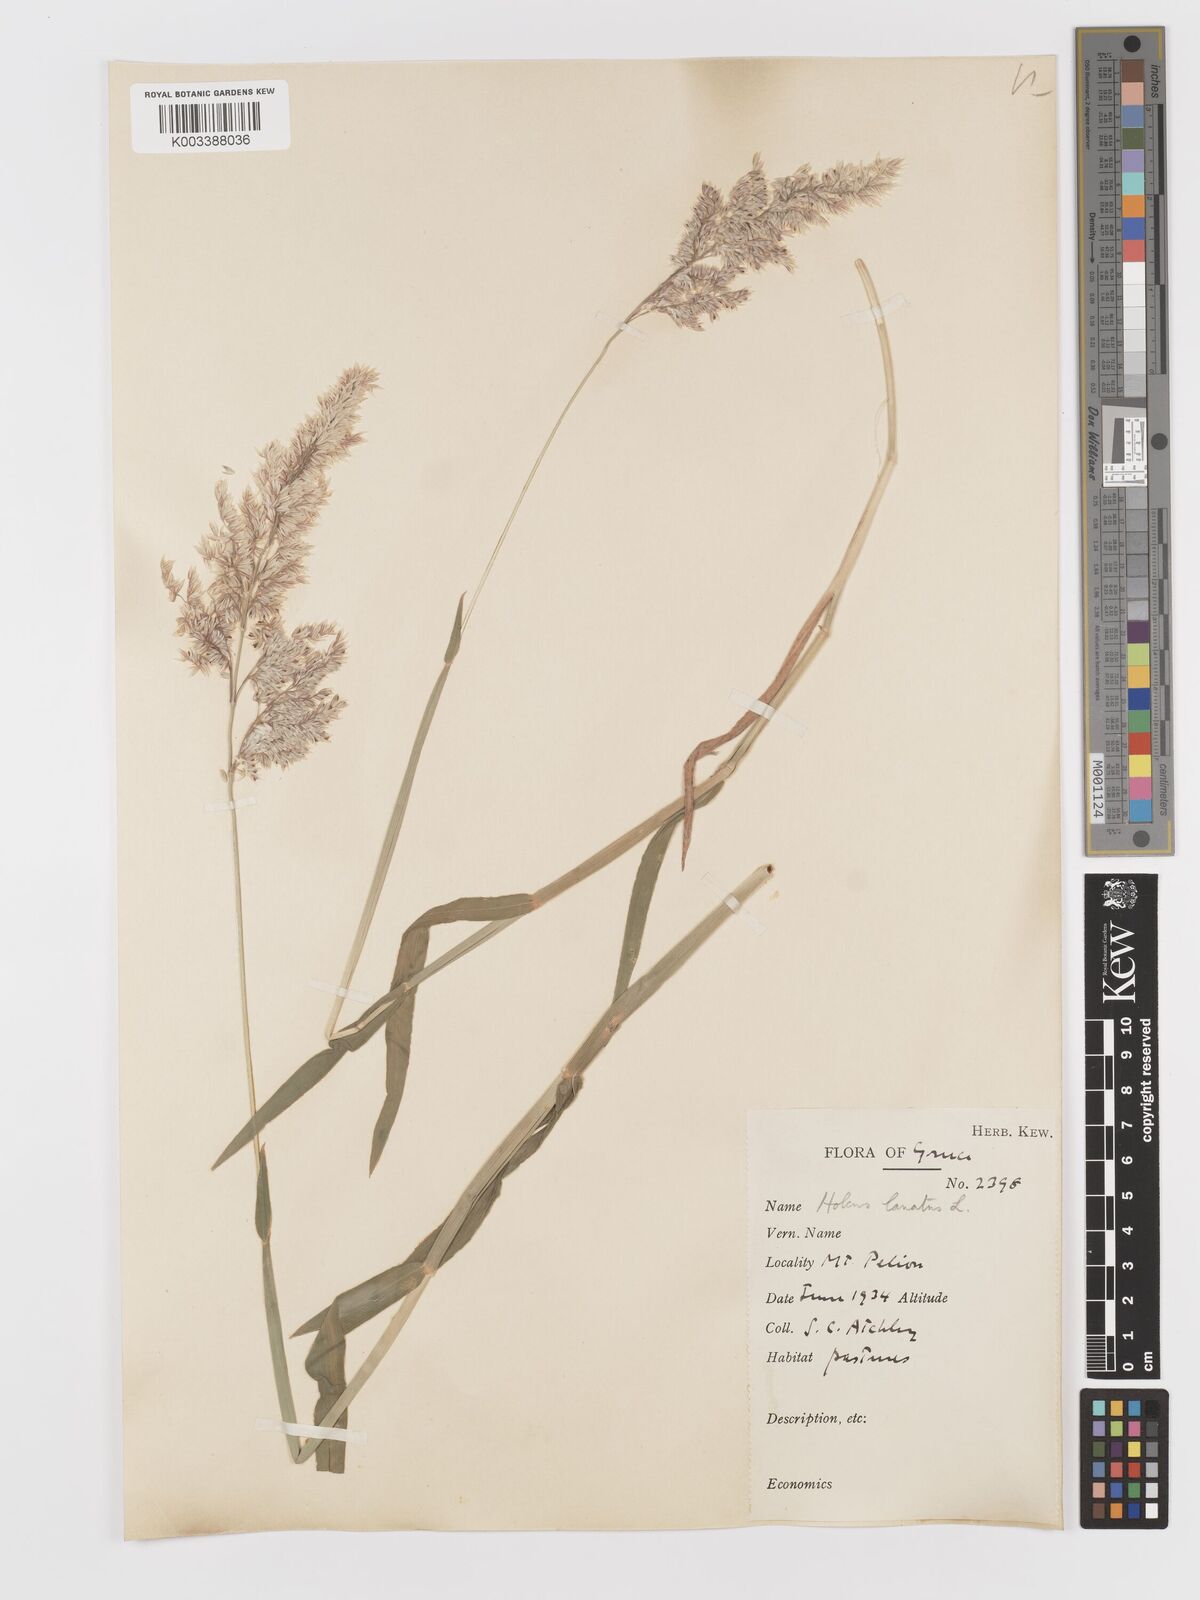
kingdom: Plantae
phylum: Tracheophyta
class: Liliopsida
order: Poales
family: Poaceae
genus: Holcus
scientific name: Holcus lanatus
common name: Yorkshire-fog
